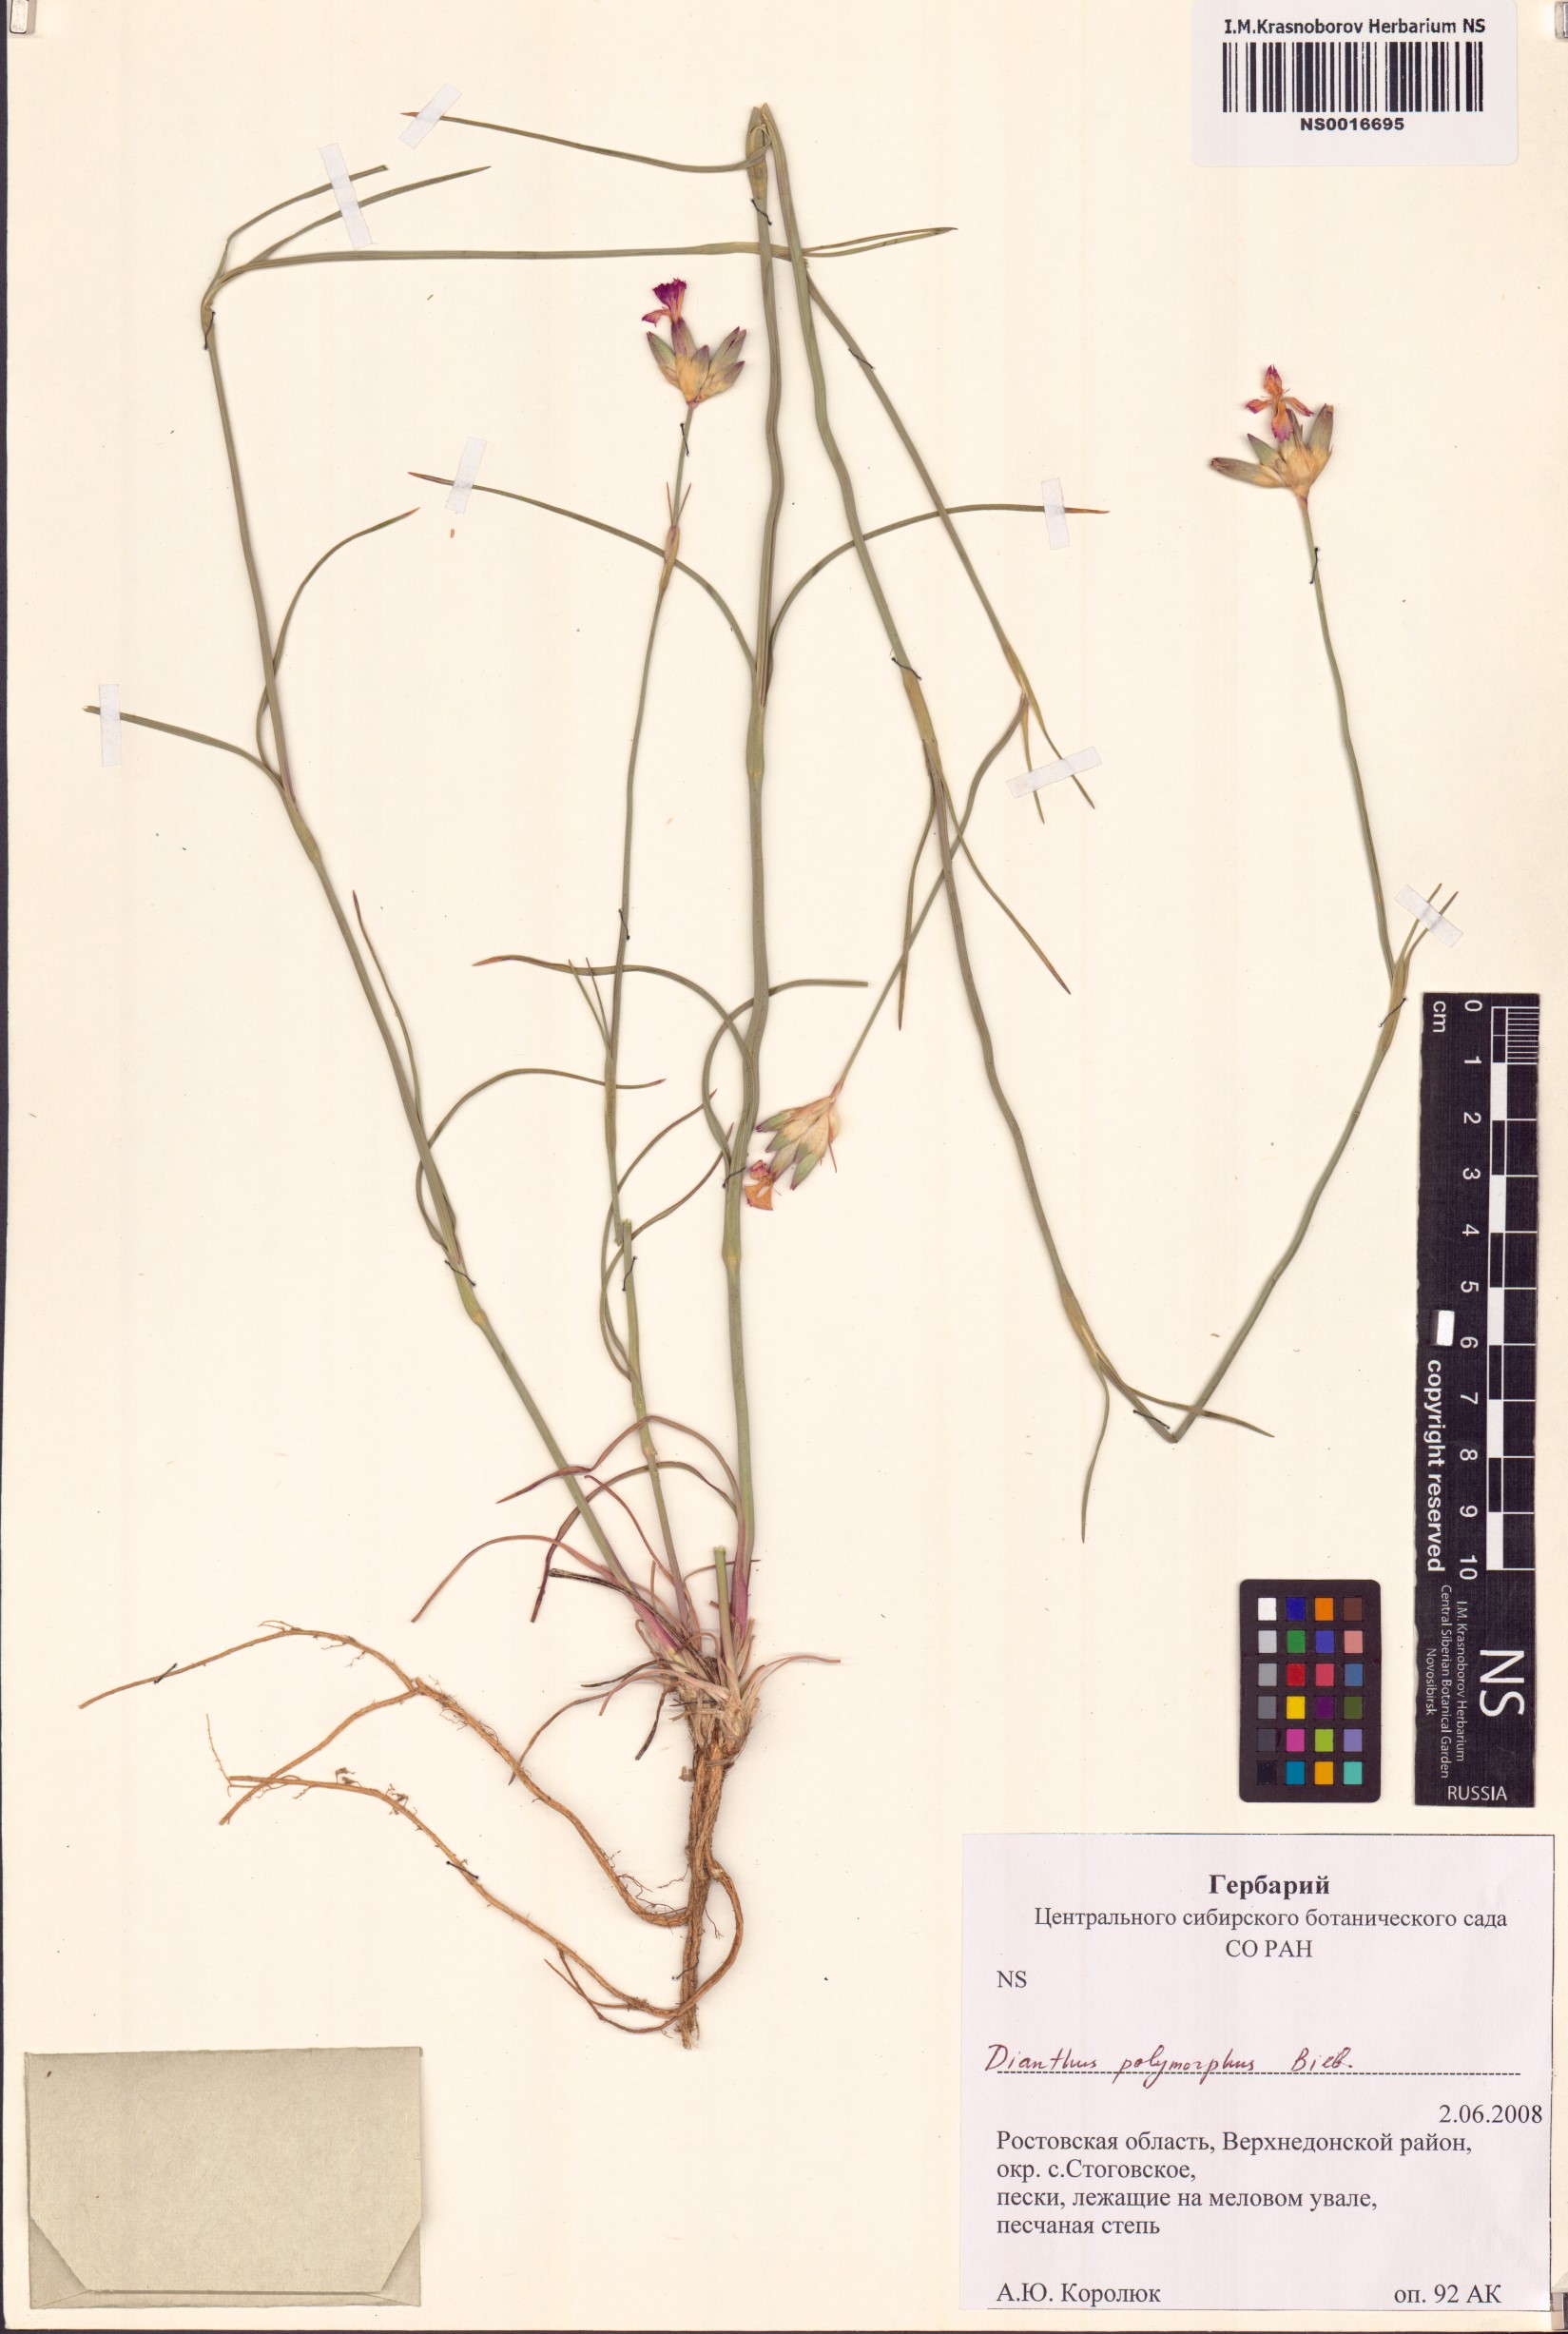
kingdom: Plantae
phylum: Tracheophyta
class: Magnoliopsida
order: Caryophyllales
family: Caryophyllaceae
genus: Dianthus
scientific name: Dianthus polymorphus
